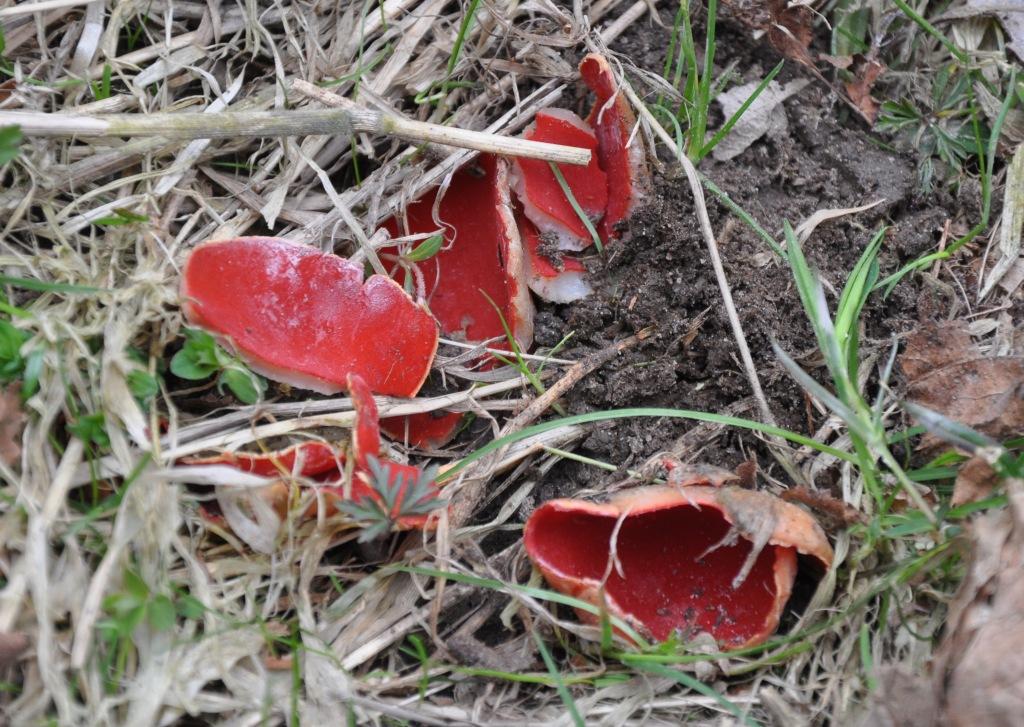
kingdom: Fungi
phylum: Ascomycota
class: Pezizomycetes
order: Pezizales
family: Sarcoscyphaceae
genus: Sarcoscypha
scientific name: Sarcoscypha austriaca
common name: krølhåret pragtbæger
